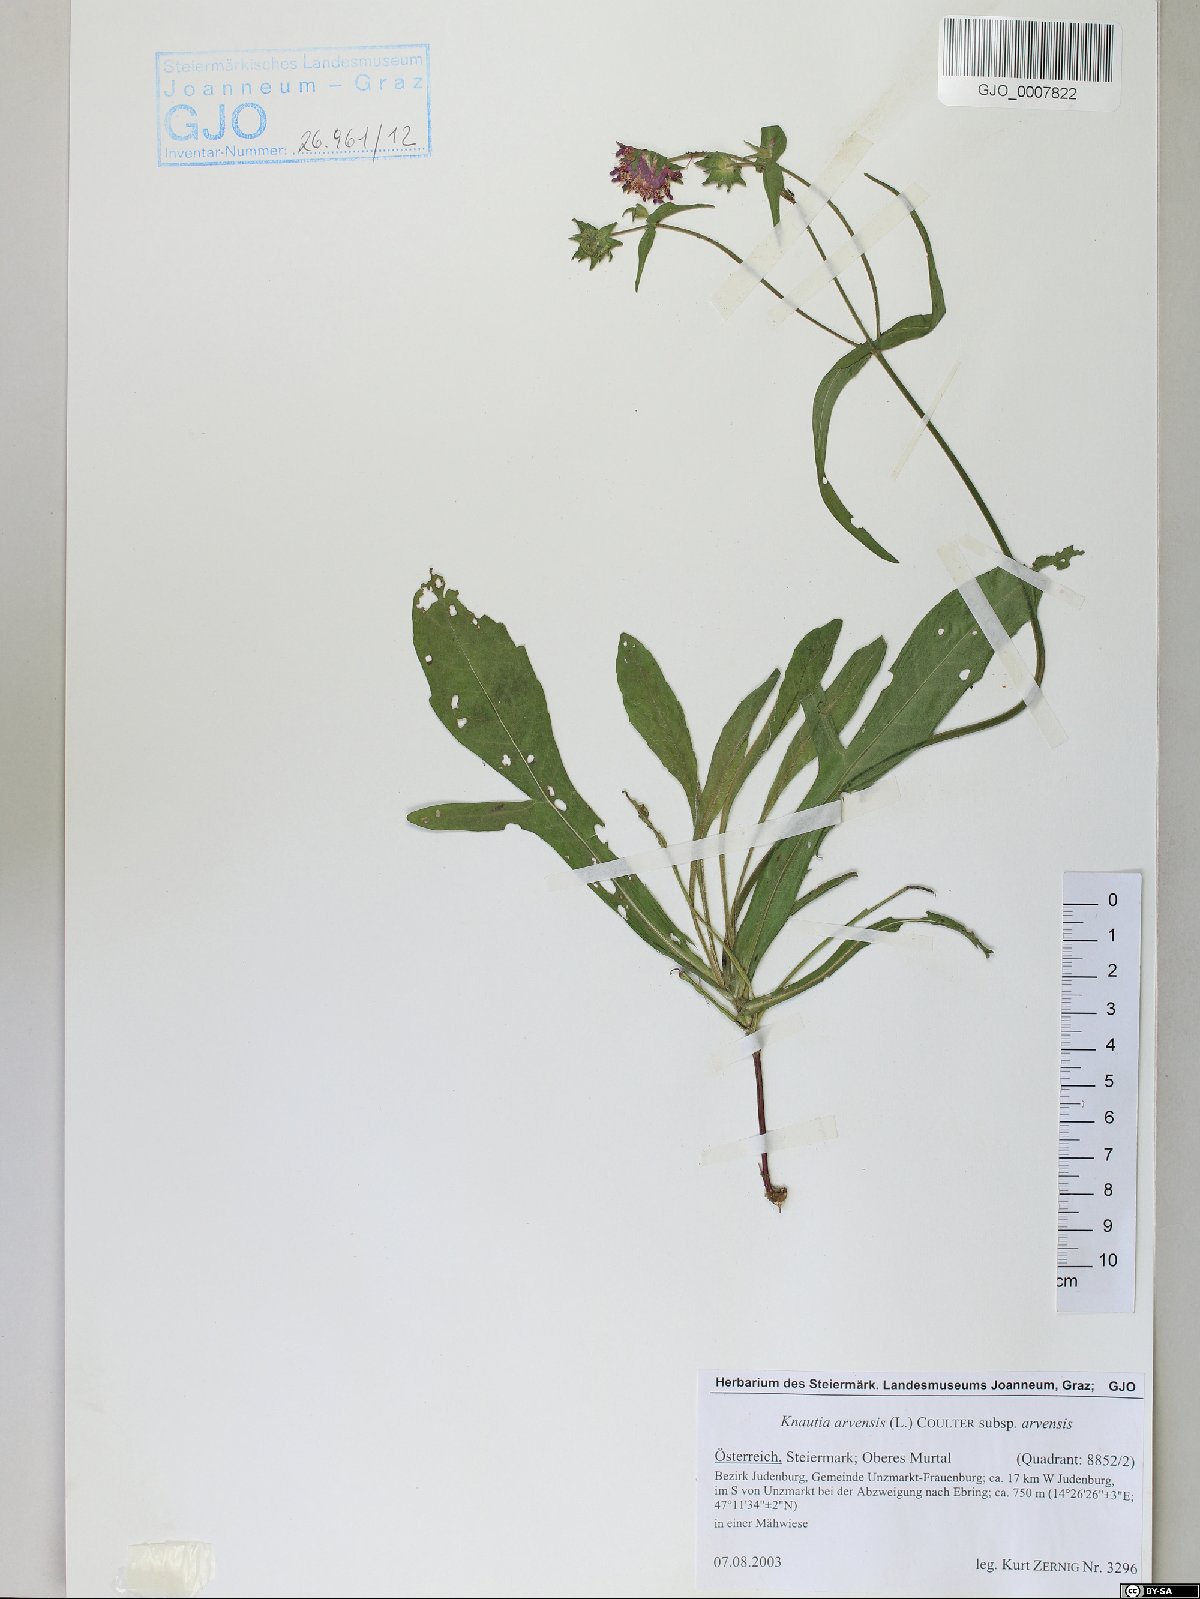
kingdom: Plantae
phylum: Tracheophyta
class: Magnoliopsida
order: Dipsacales
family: Caprifoliaceae
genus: Knautia
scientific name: Knautia arvensis
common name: Field scabiosa
